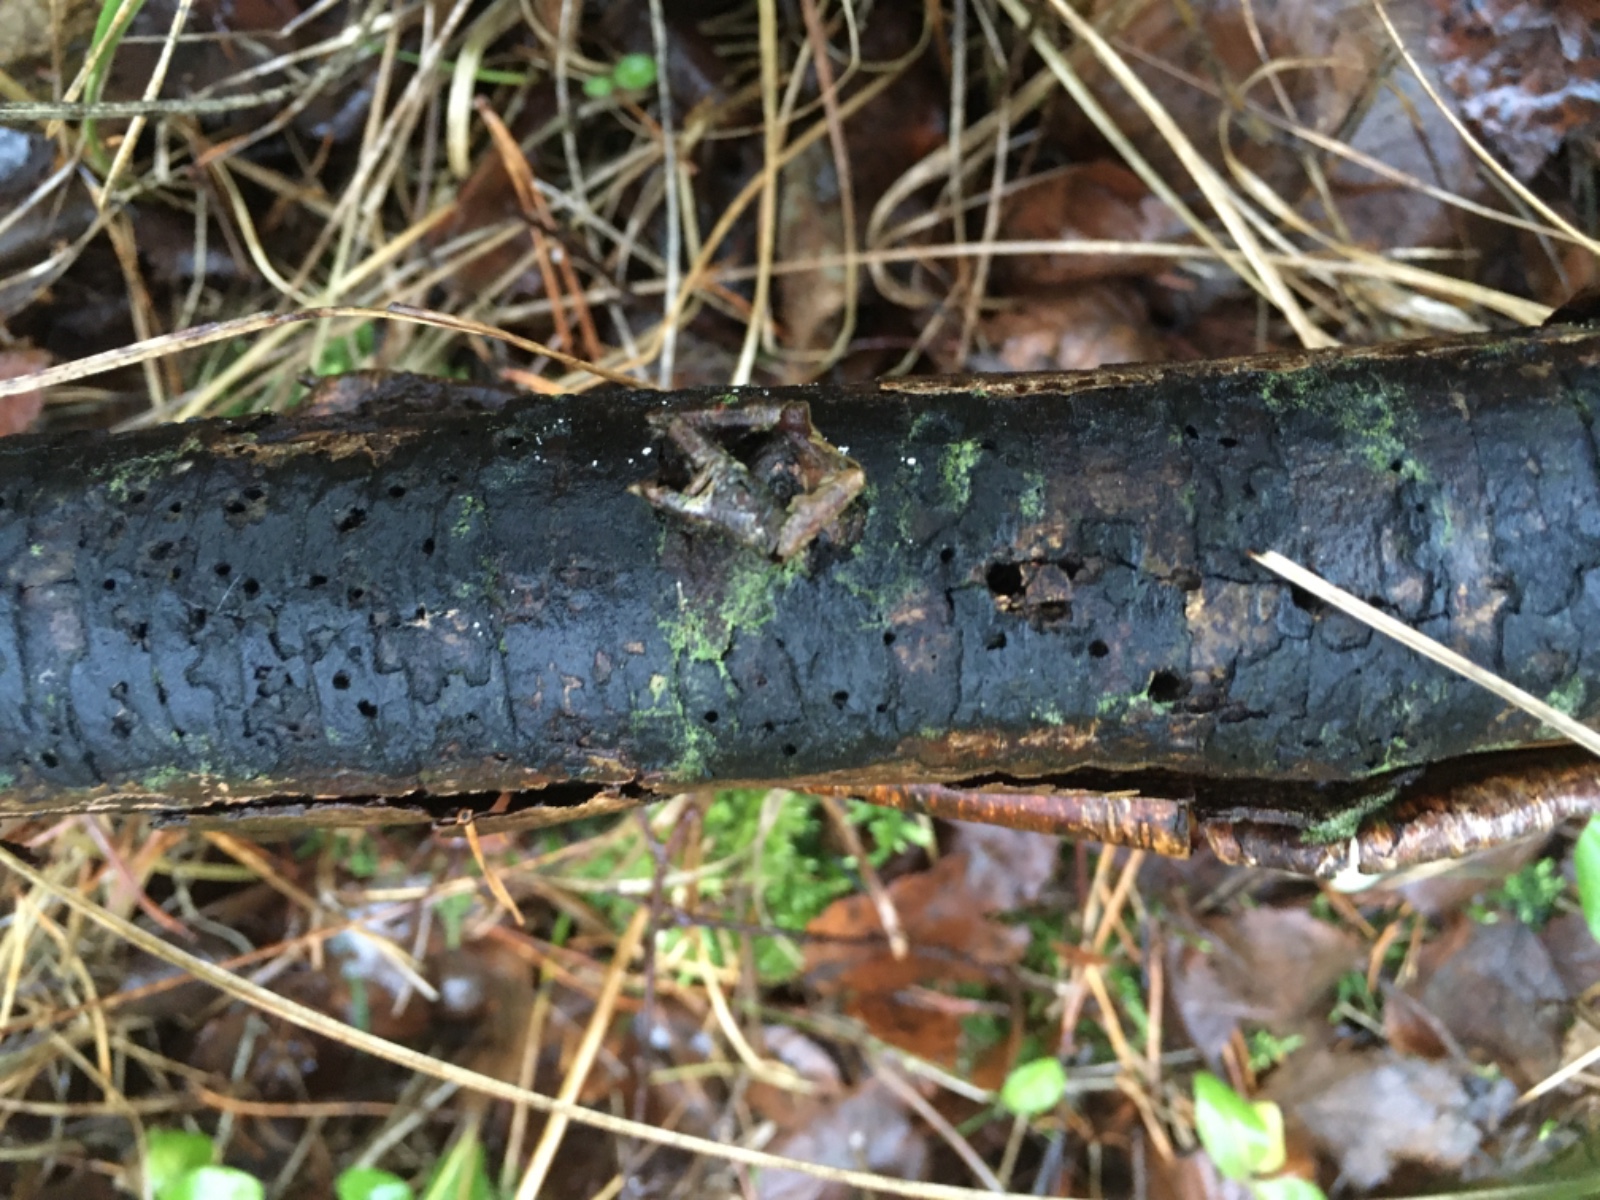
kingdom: Fungi
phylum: Ascomycota
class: Sordariomycetes
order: Xylariales
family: Diatrypaceae
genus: Diatrype
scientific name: Diatrype
